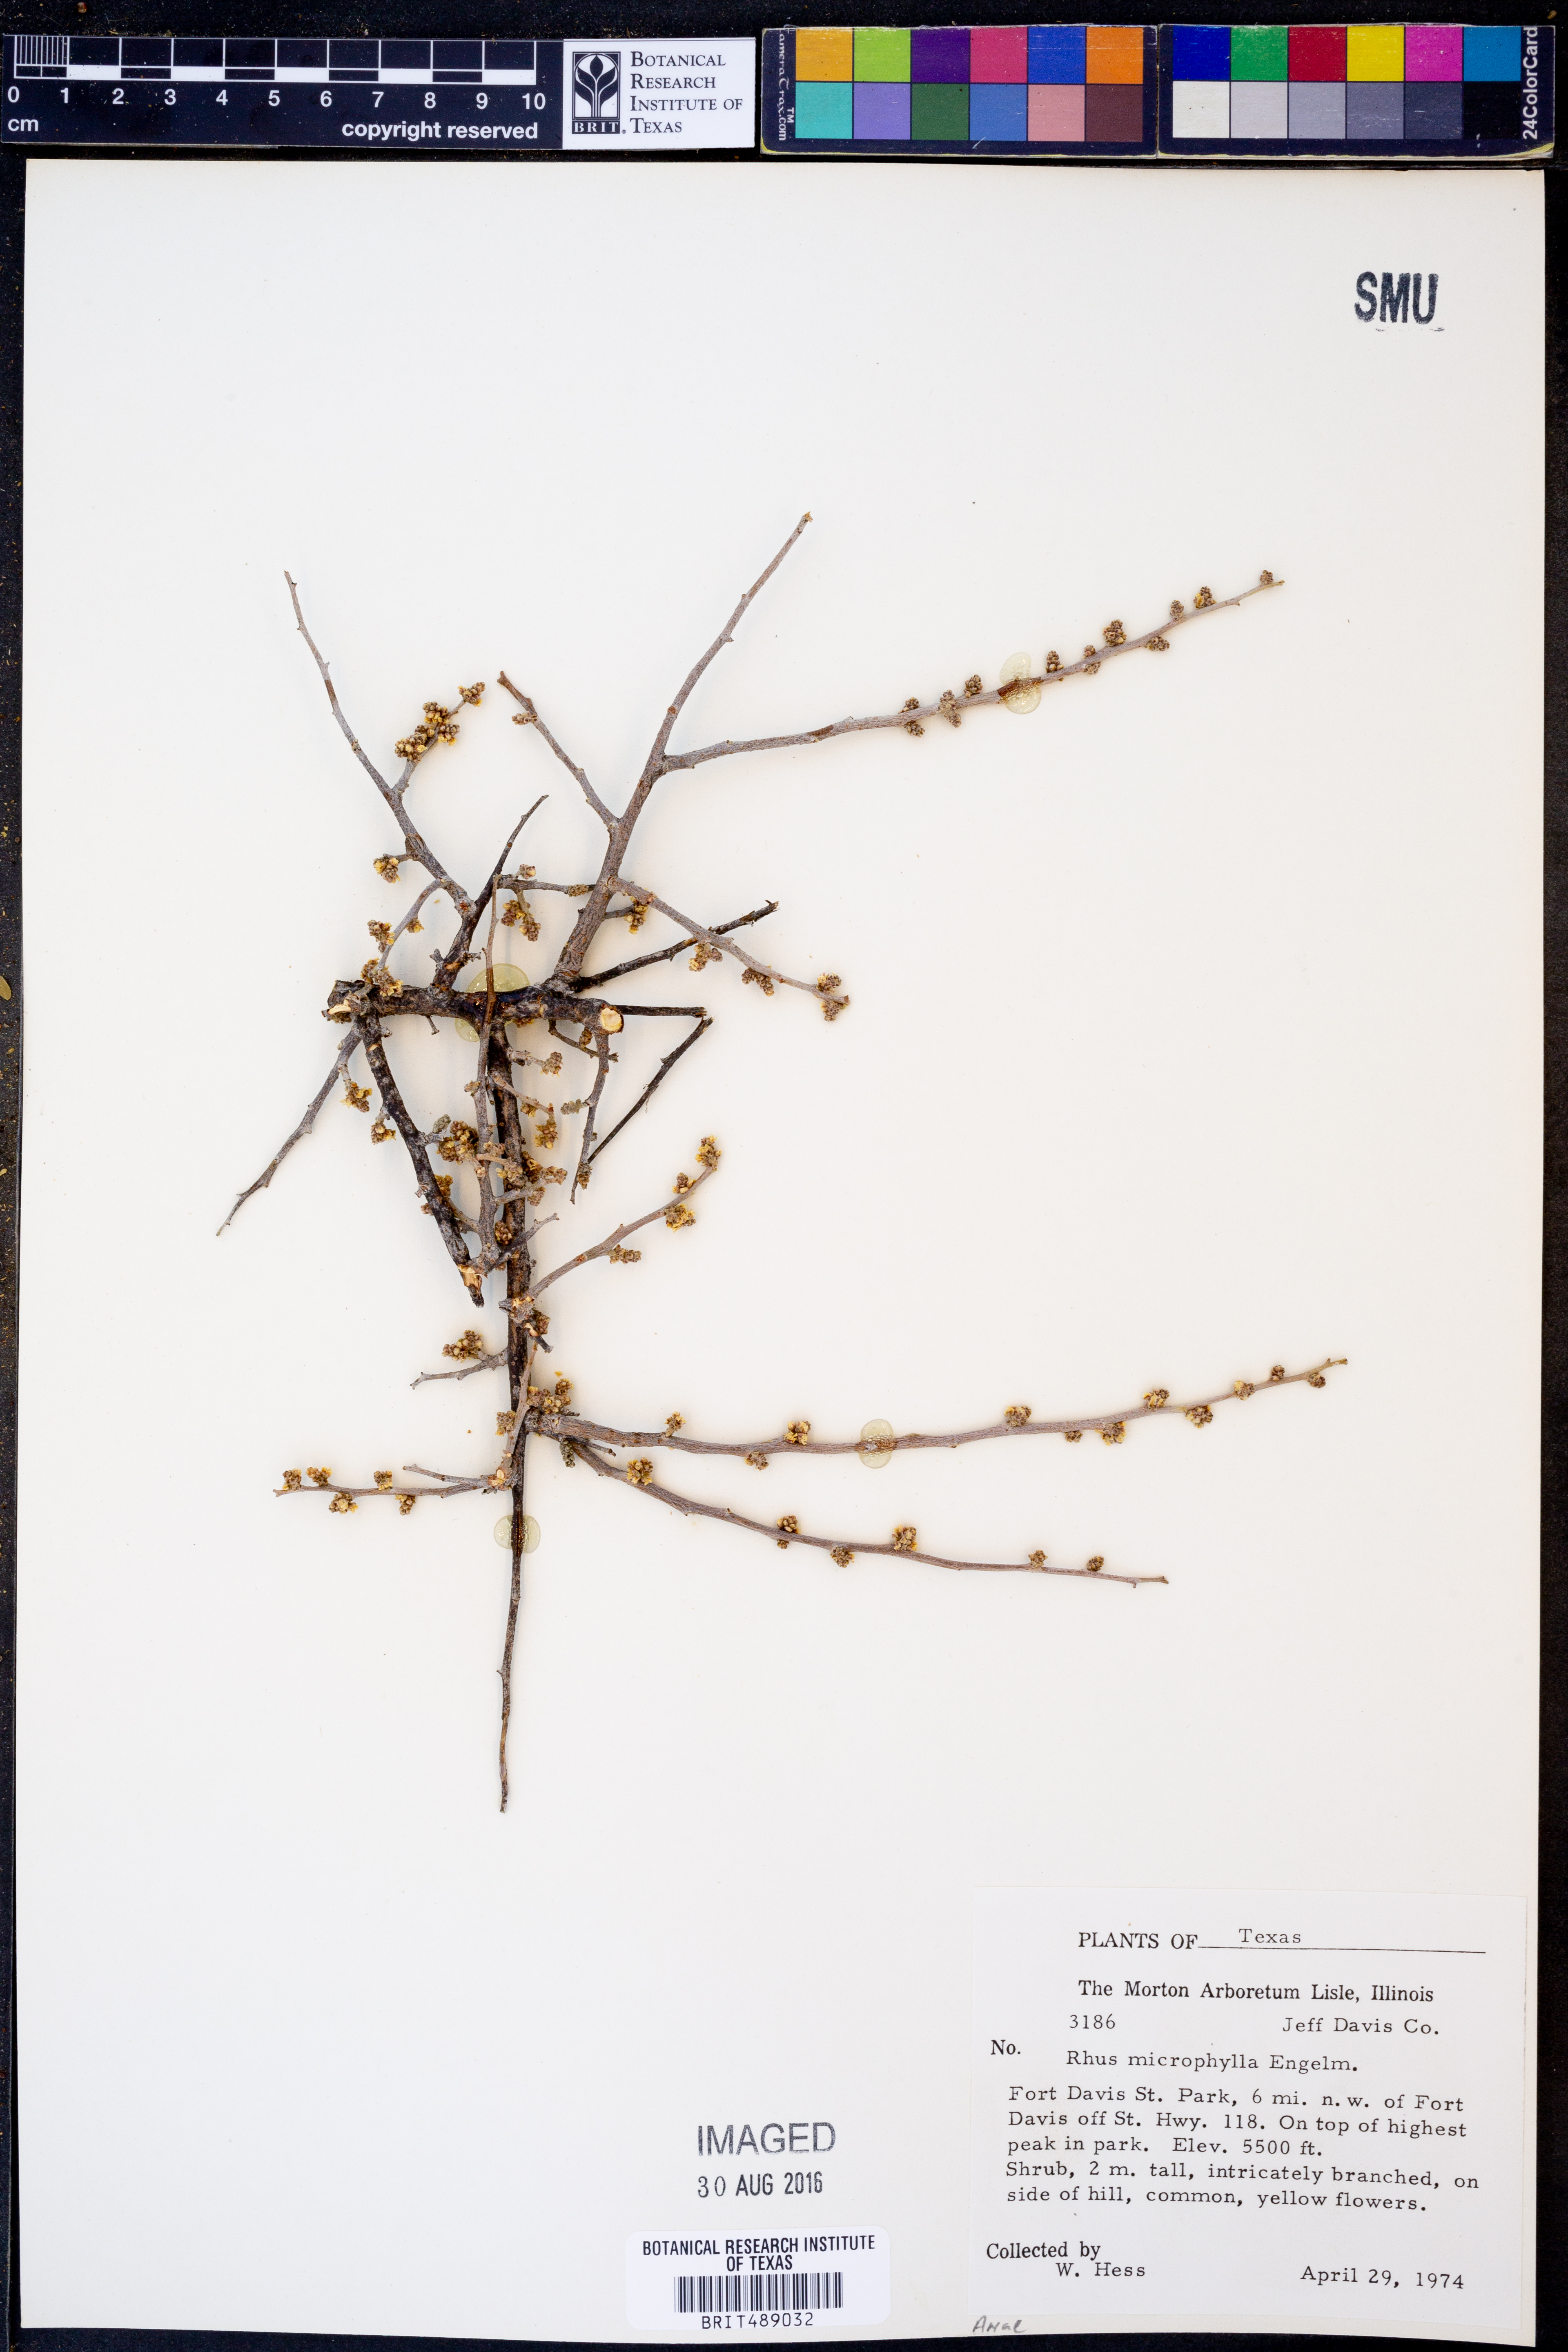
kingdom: Plantae
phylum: Tracheophyta
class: Magnoliopsida
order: Sapindales
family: Anacardiaceae
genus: Rhus
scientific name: Rhus microphylla
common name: Desert sumac
